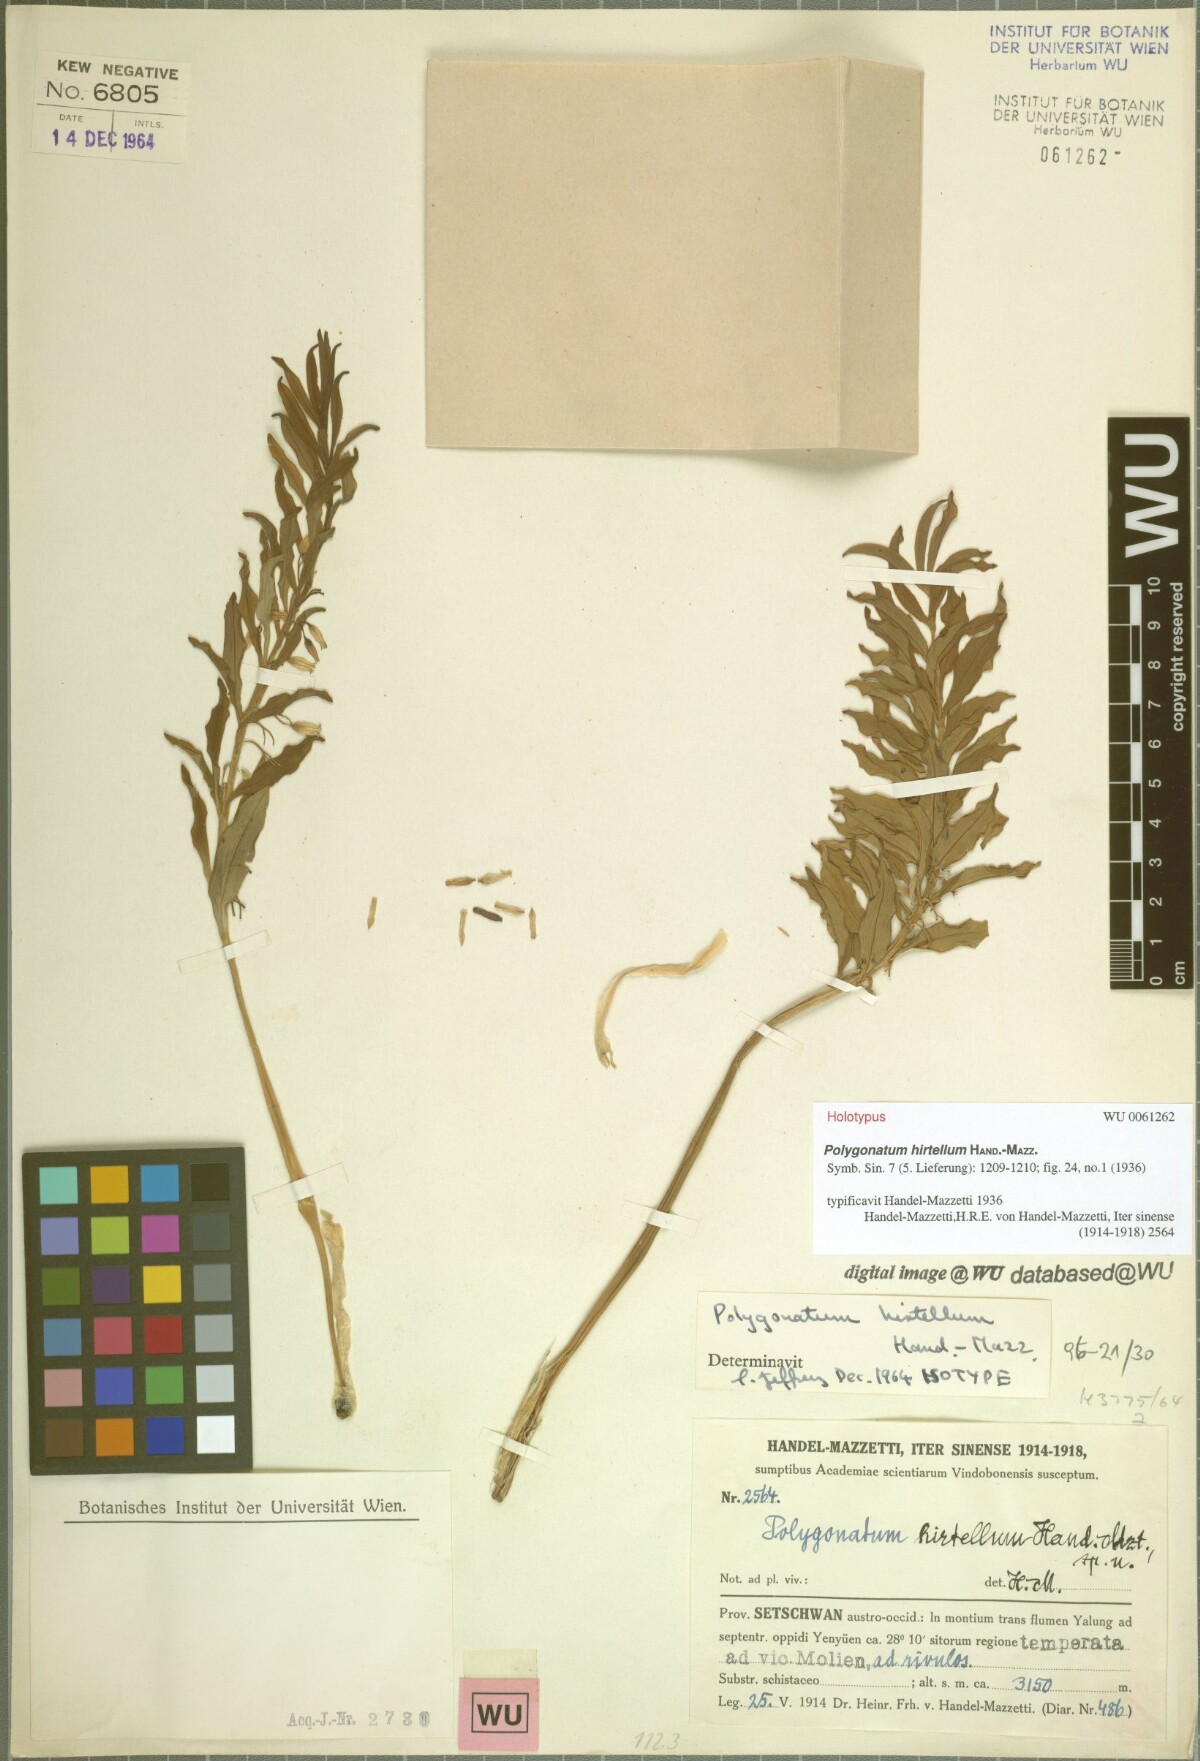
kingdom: Plantae
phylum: Tracheophyta
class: Liliopsida
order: Asparagales
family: Asparagaceae
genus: Polygonatum
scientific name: Polygonatum hirtellum
